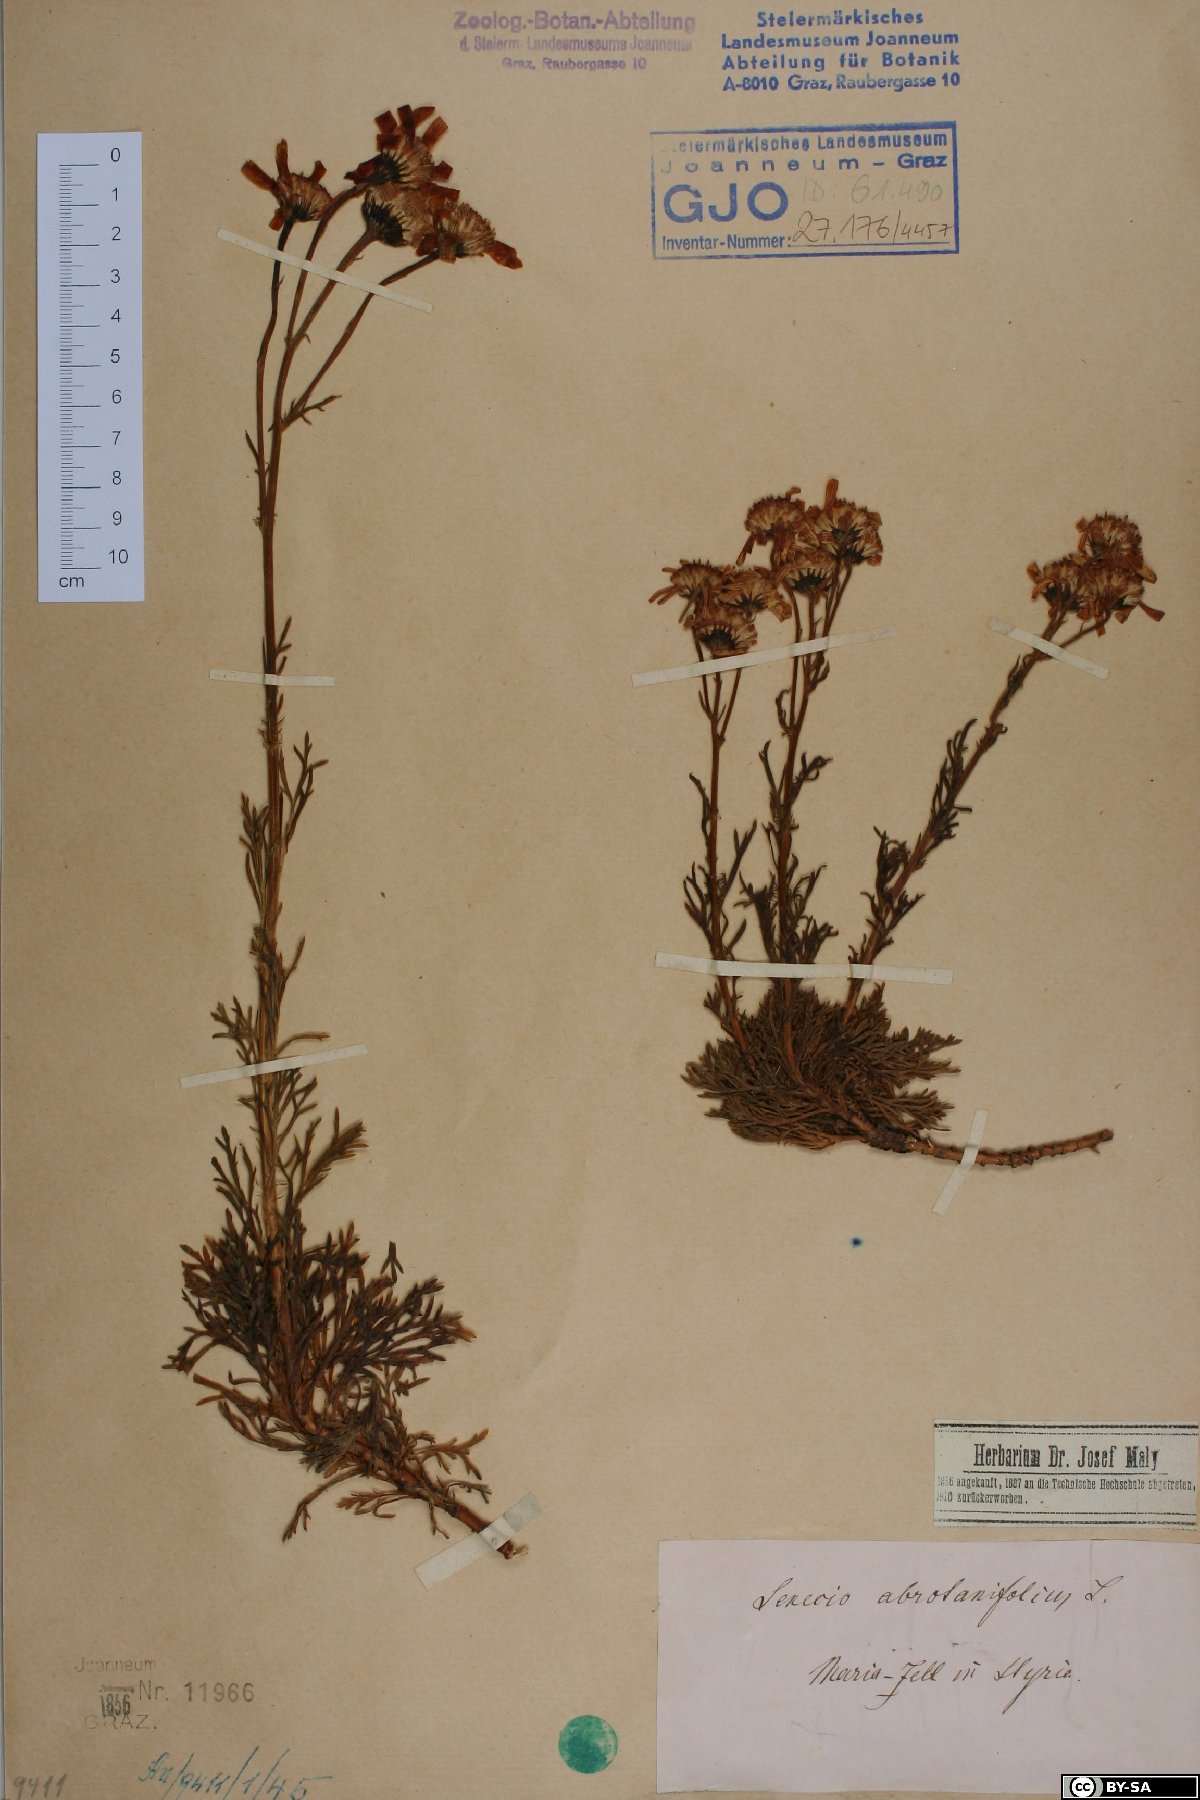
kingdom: Plantae
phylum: Tracheophyta
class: Magnoliopsida
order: Asterales
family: Asteraceae
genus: Jacobaea
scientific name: Jacobaea abrotanifolia
